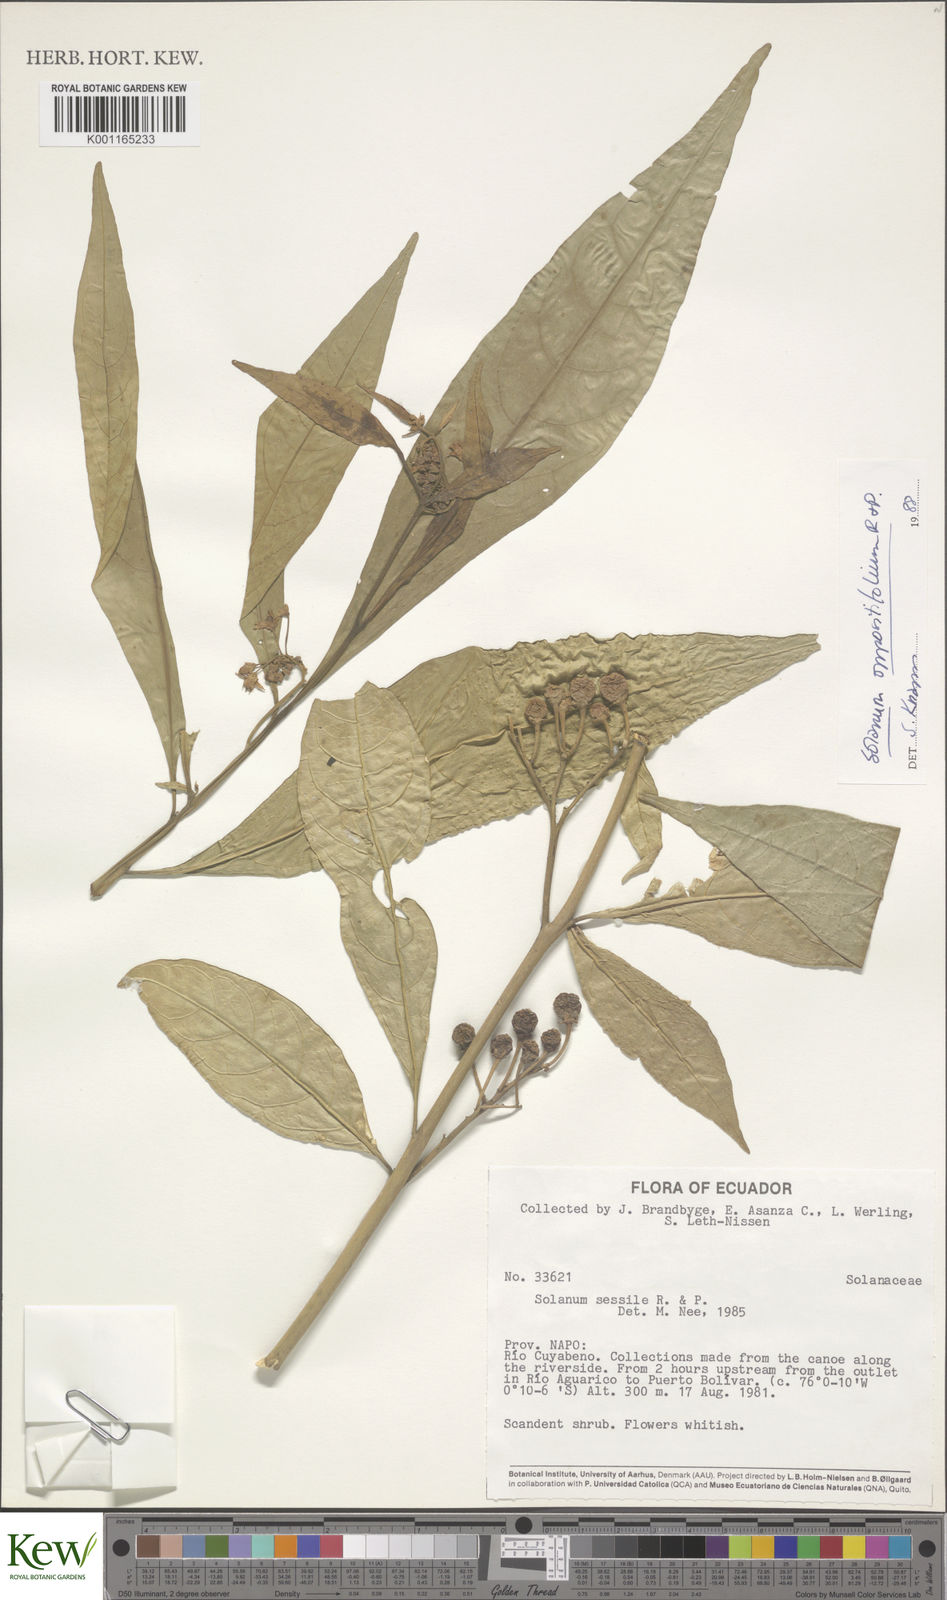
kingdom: Plantae
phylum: Tracheophyta
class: Magnoliopsida
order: Solanales
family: Solanaceae
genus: Solanum
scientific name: Solanum oppositifolium
